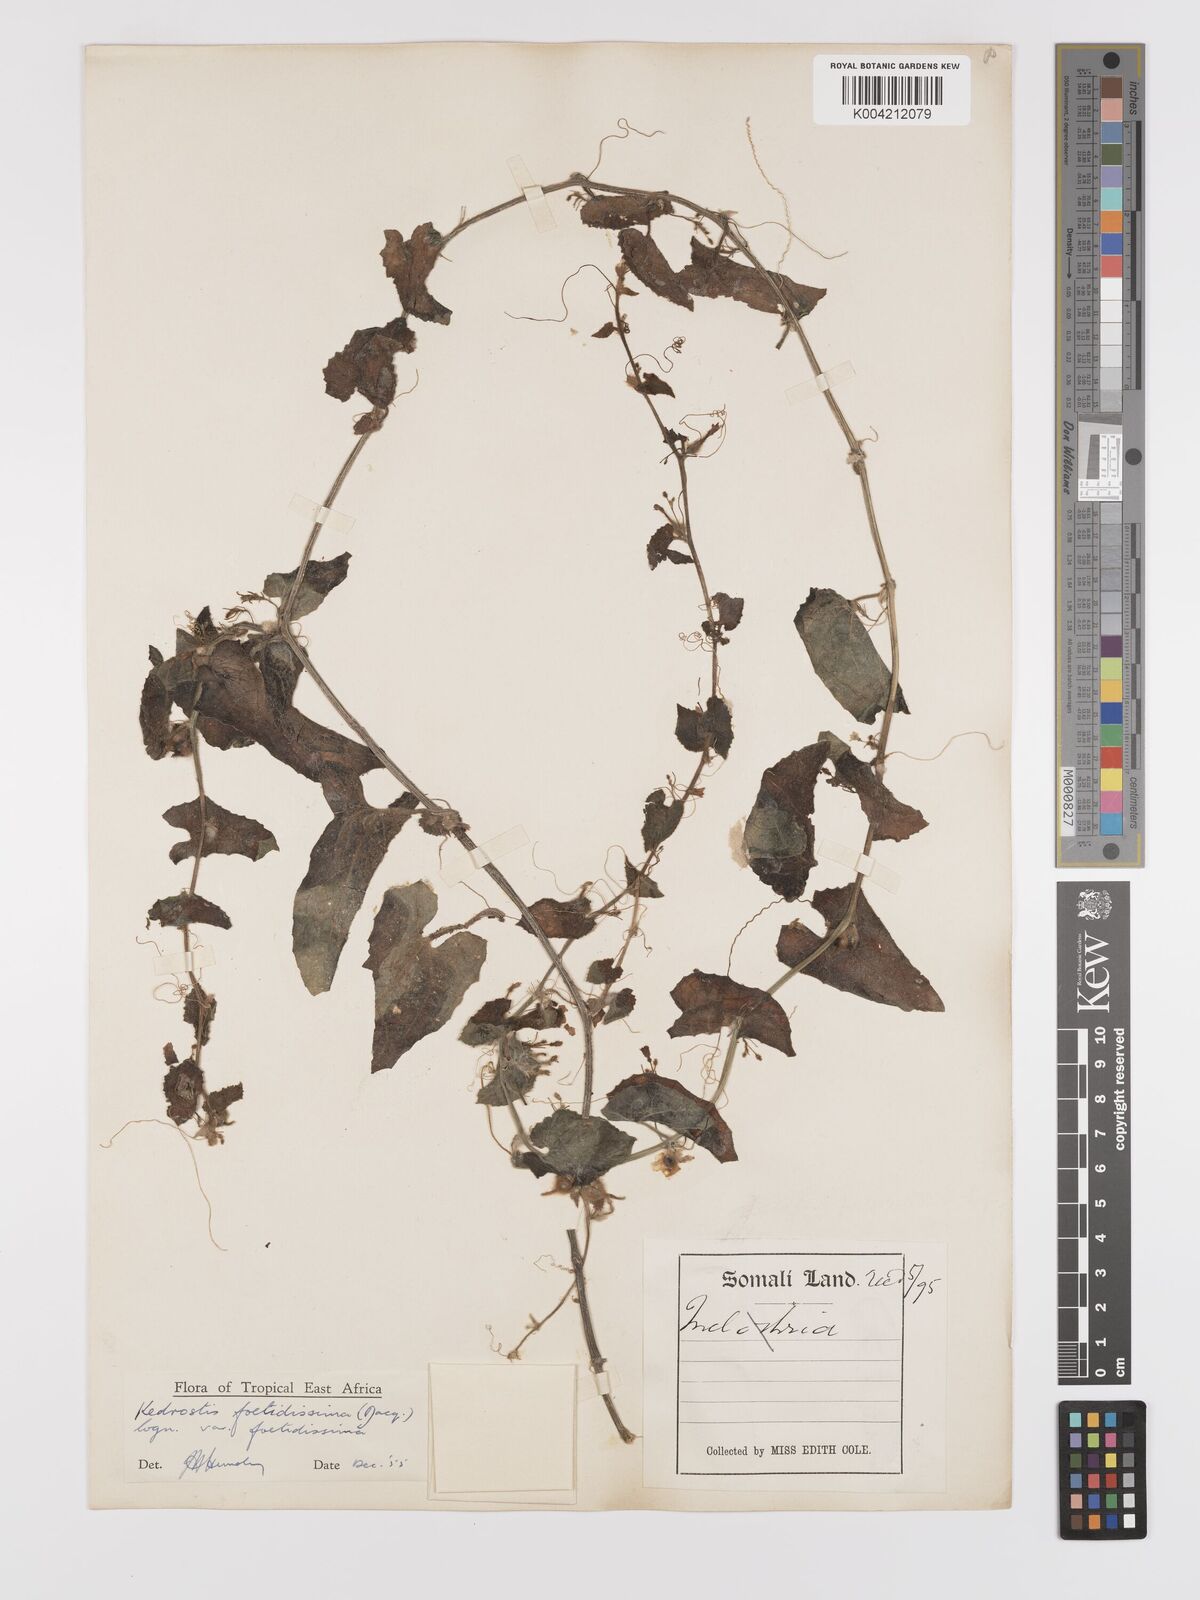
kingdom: Plantae
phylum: Tracheophyta
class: Magnoliopsida
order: Cucurbitales
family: Cucurbitaceae
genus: Kedrostis
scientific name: Kedrostis foetidissima
